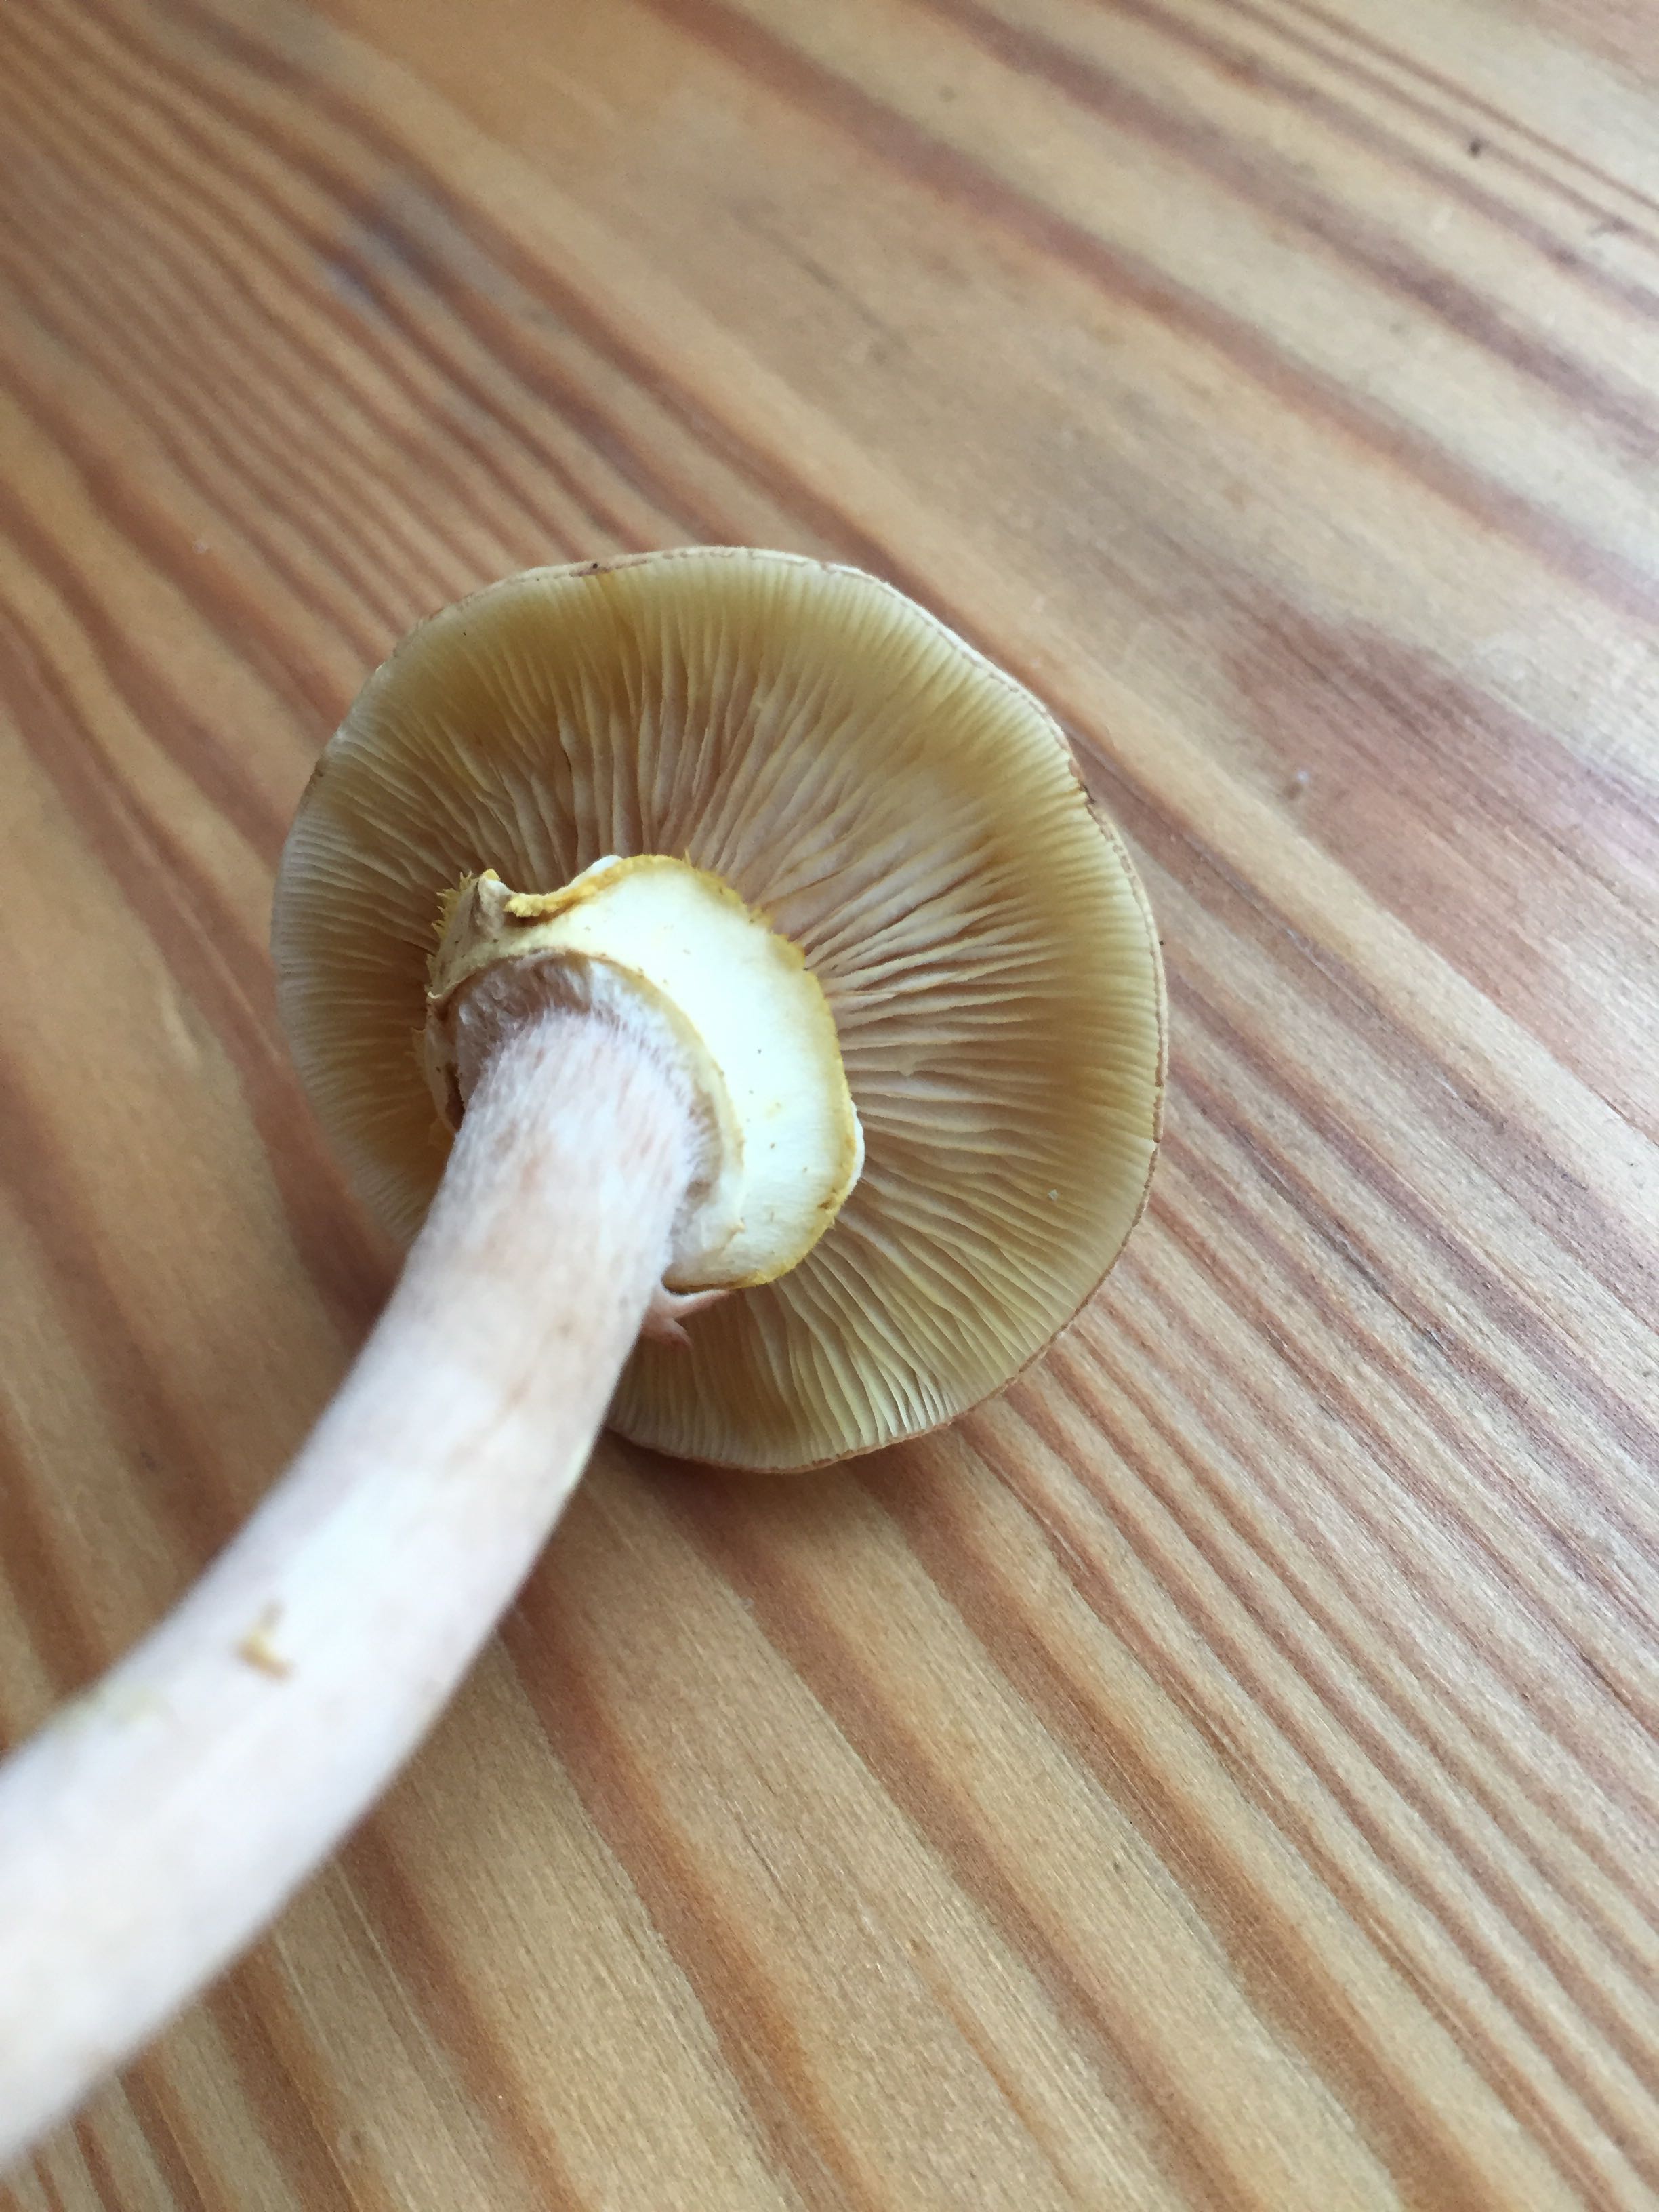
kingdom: Fungi
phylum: Basidiomycota
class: Agaricomycetes
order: Agaricales
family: Physalacriaceae
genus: Armillaria
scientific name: Armillaria mellea
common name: ægte honningsvamp
